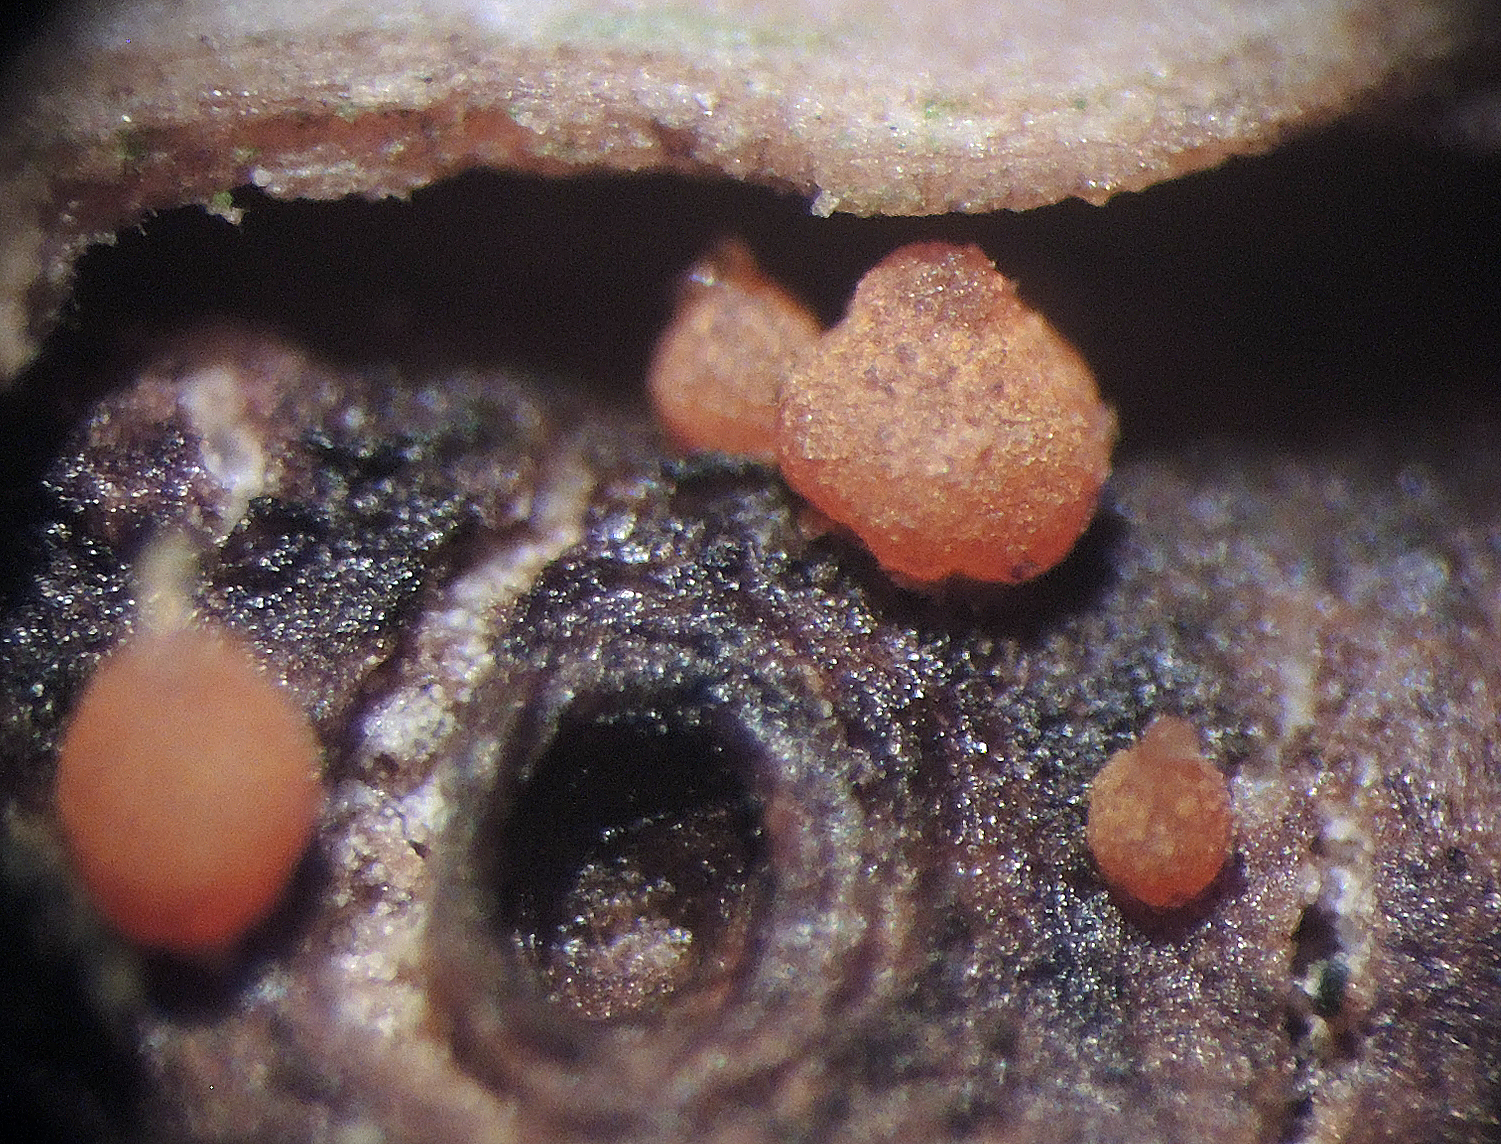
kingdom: Fungi
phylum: Ascomycota
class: Sordariomycetes
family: Thyridiaceae
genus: Thyronectria
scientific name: Thyronectria sinopica
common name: vedbend-cinnobersvamp
